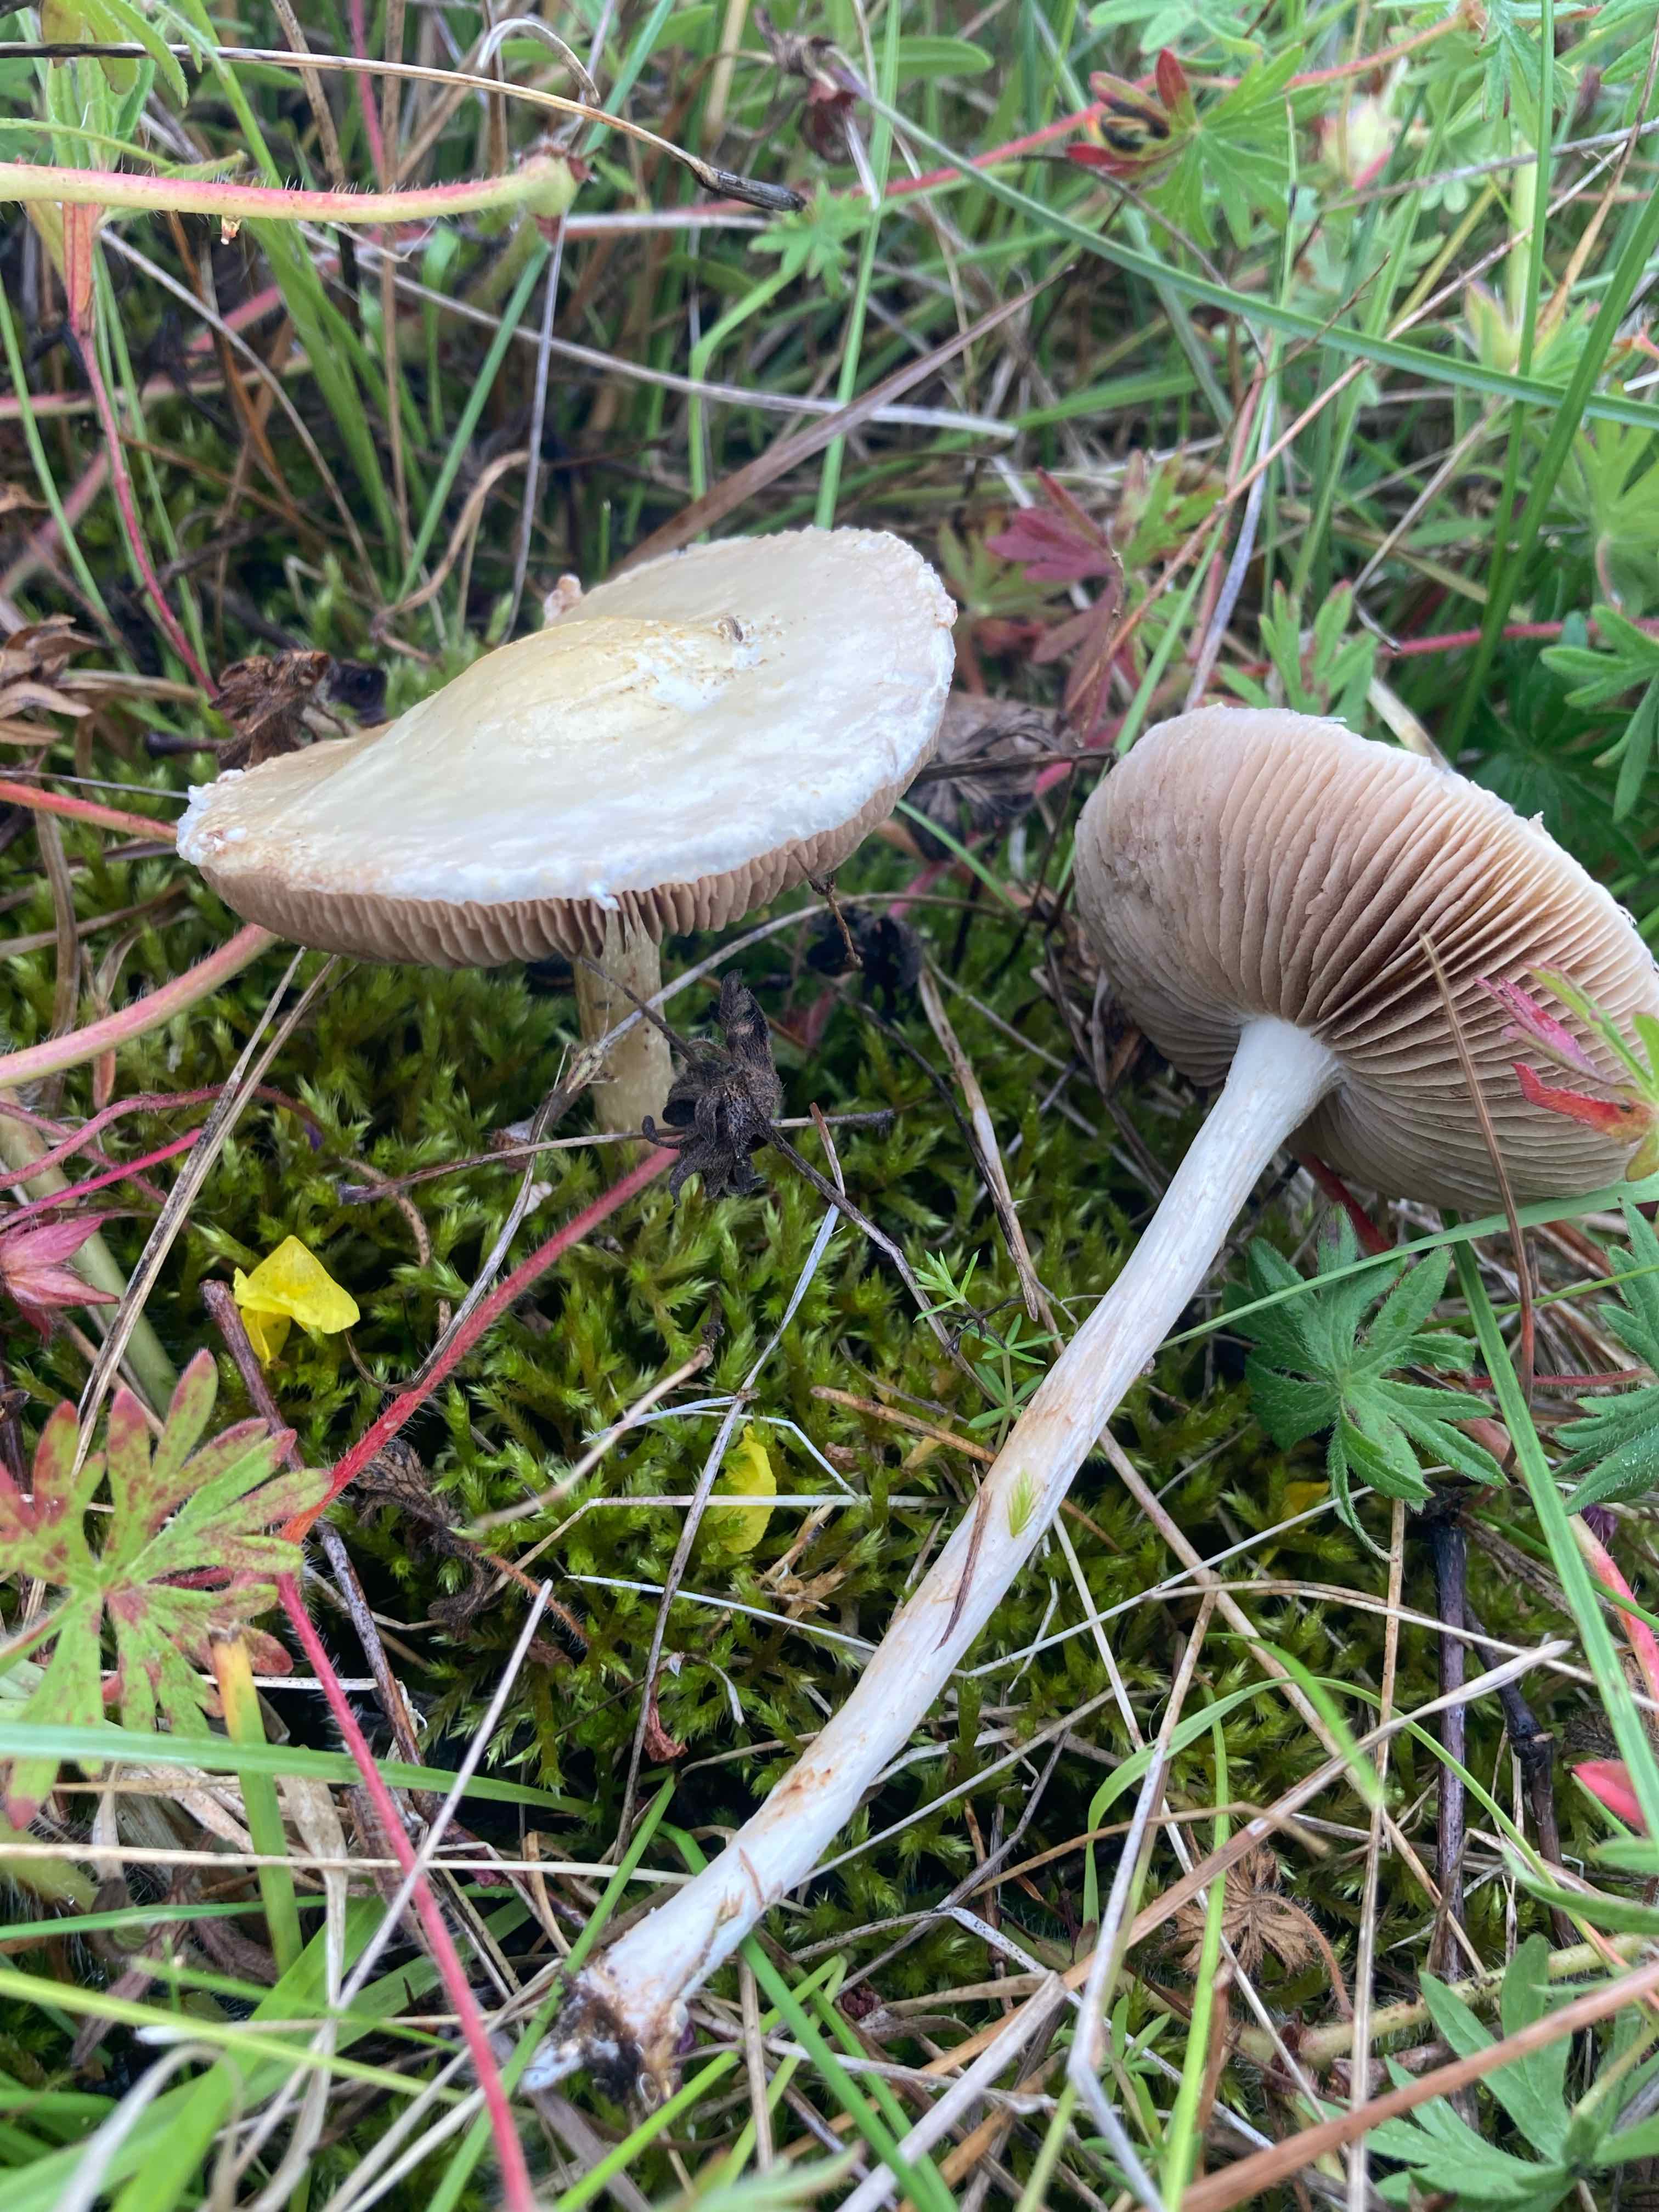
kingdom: Fungi
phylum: Basidiomycota
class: Agaricomycetes
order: Agaricales
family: Strophariaceae
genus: Agrocybe
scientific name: Agrocybe
